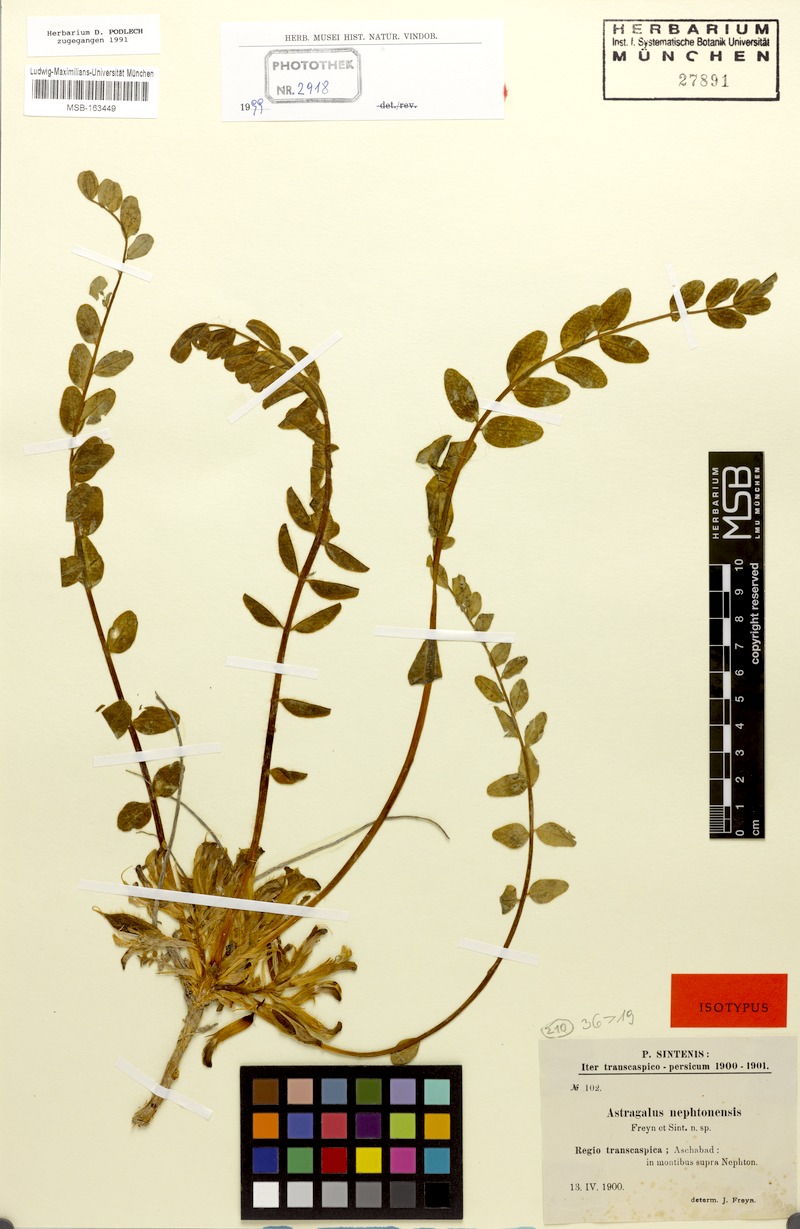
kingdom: Plantae
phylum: Tracheophyta
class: Magnoliopsida
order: Fabales
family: Fabaceae
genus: Astragalus
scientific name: Astragalus nephtonensis
